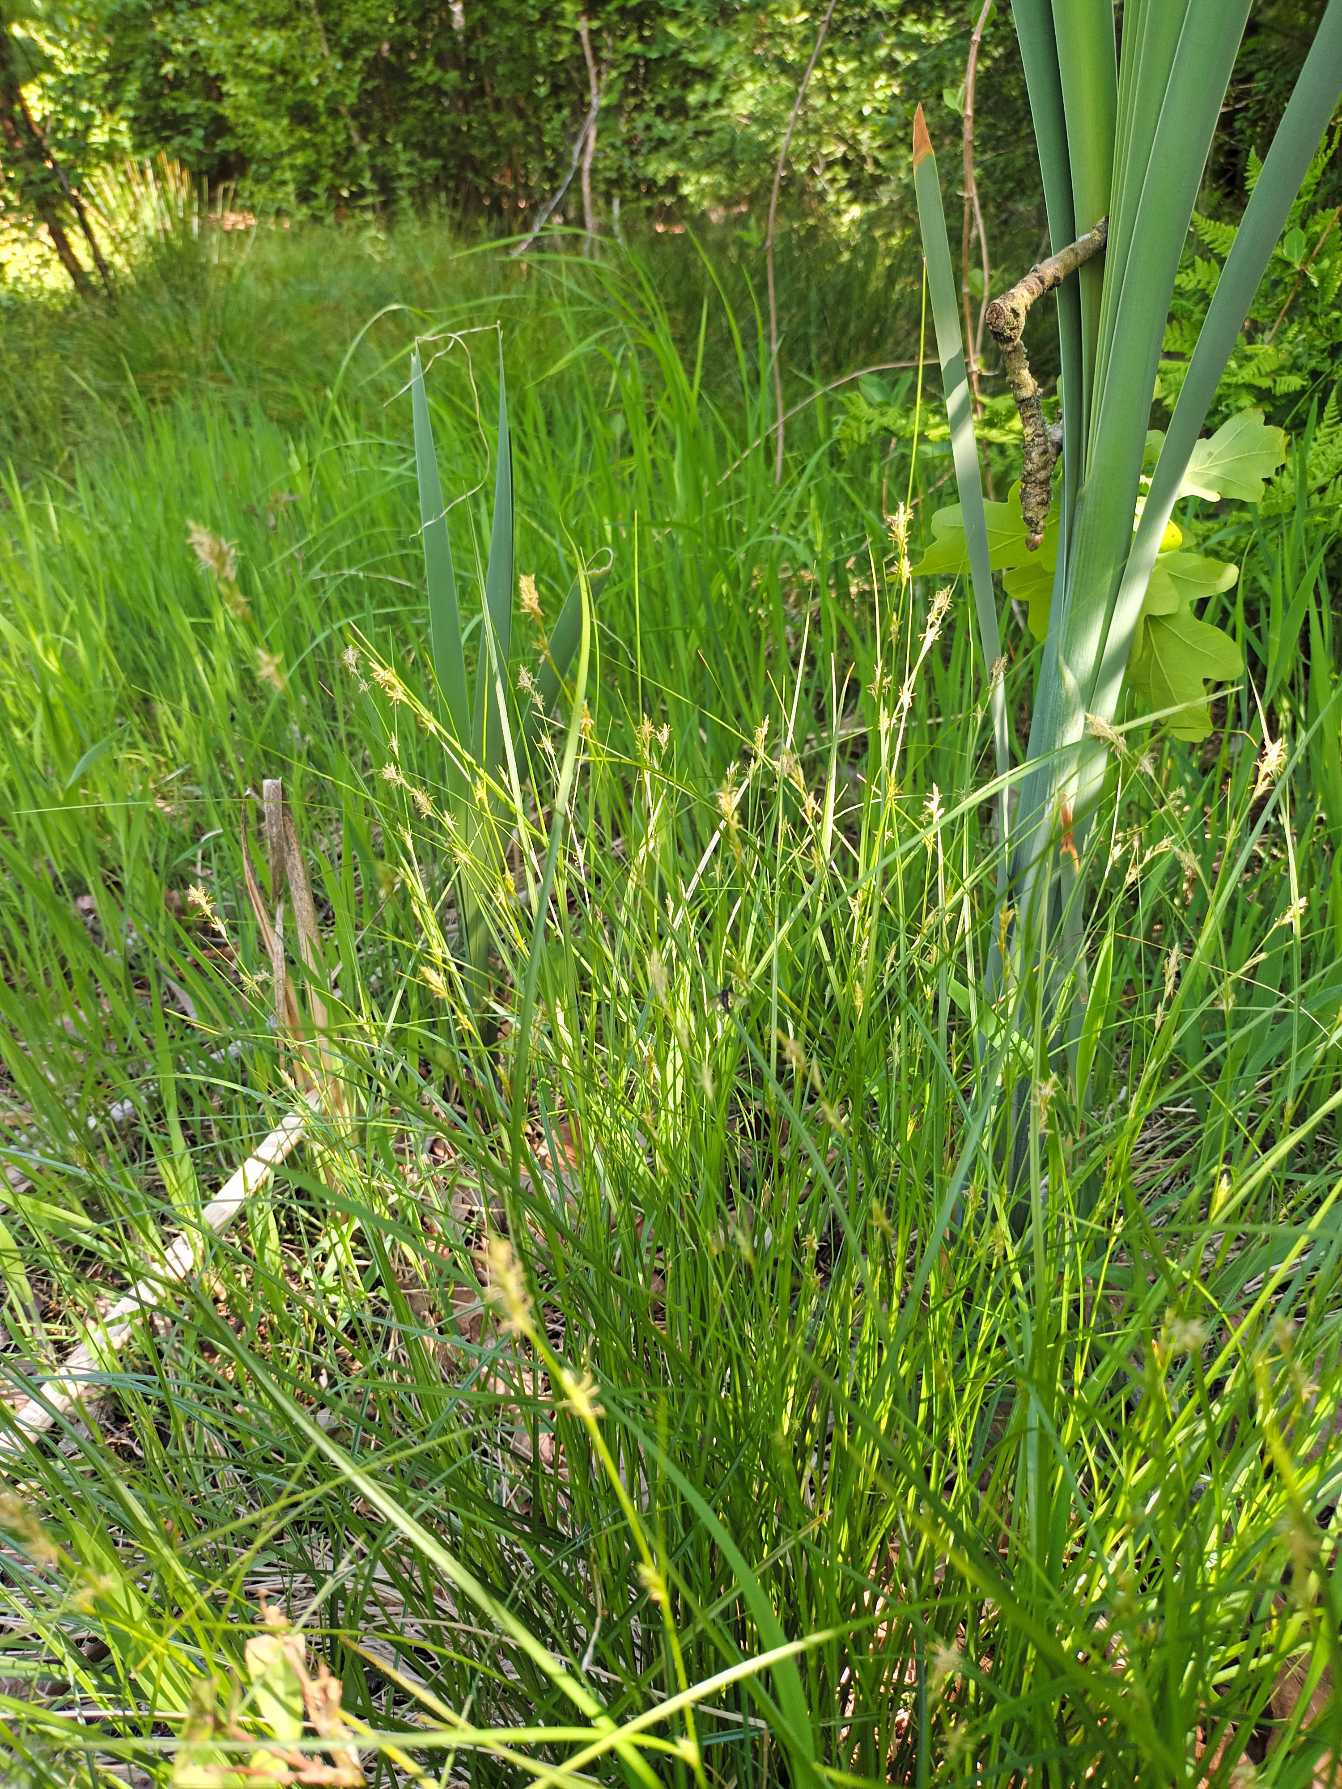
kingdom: Plantae
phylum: Tracheophyta
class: Liliopsida
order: Poales
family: Cyperaceae
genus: Carex
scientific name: Carex remota
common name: Akselblomstret star
